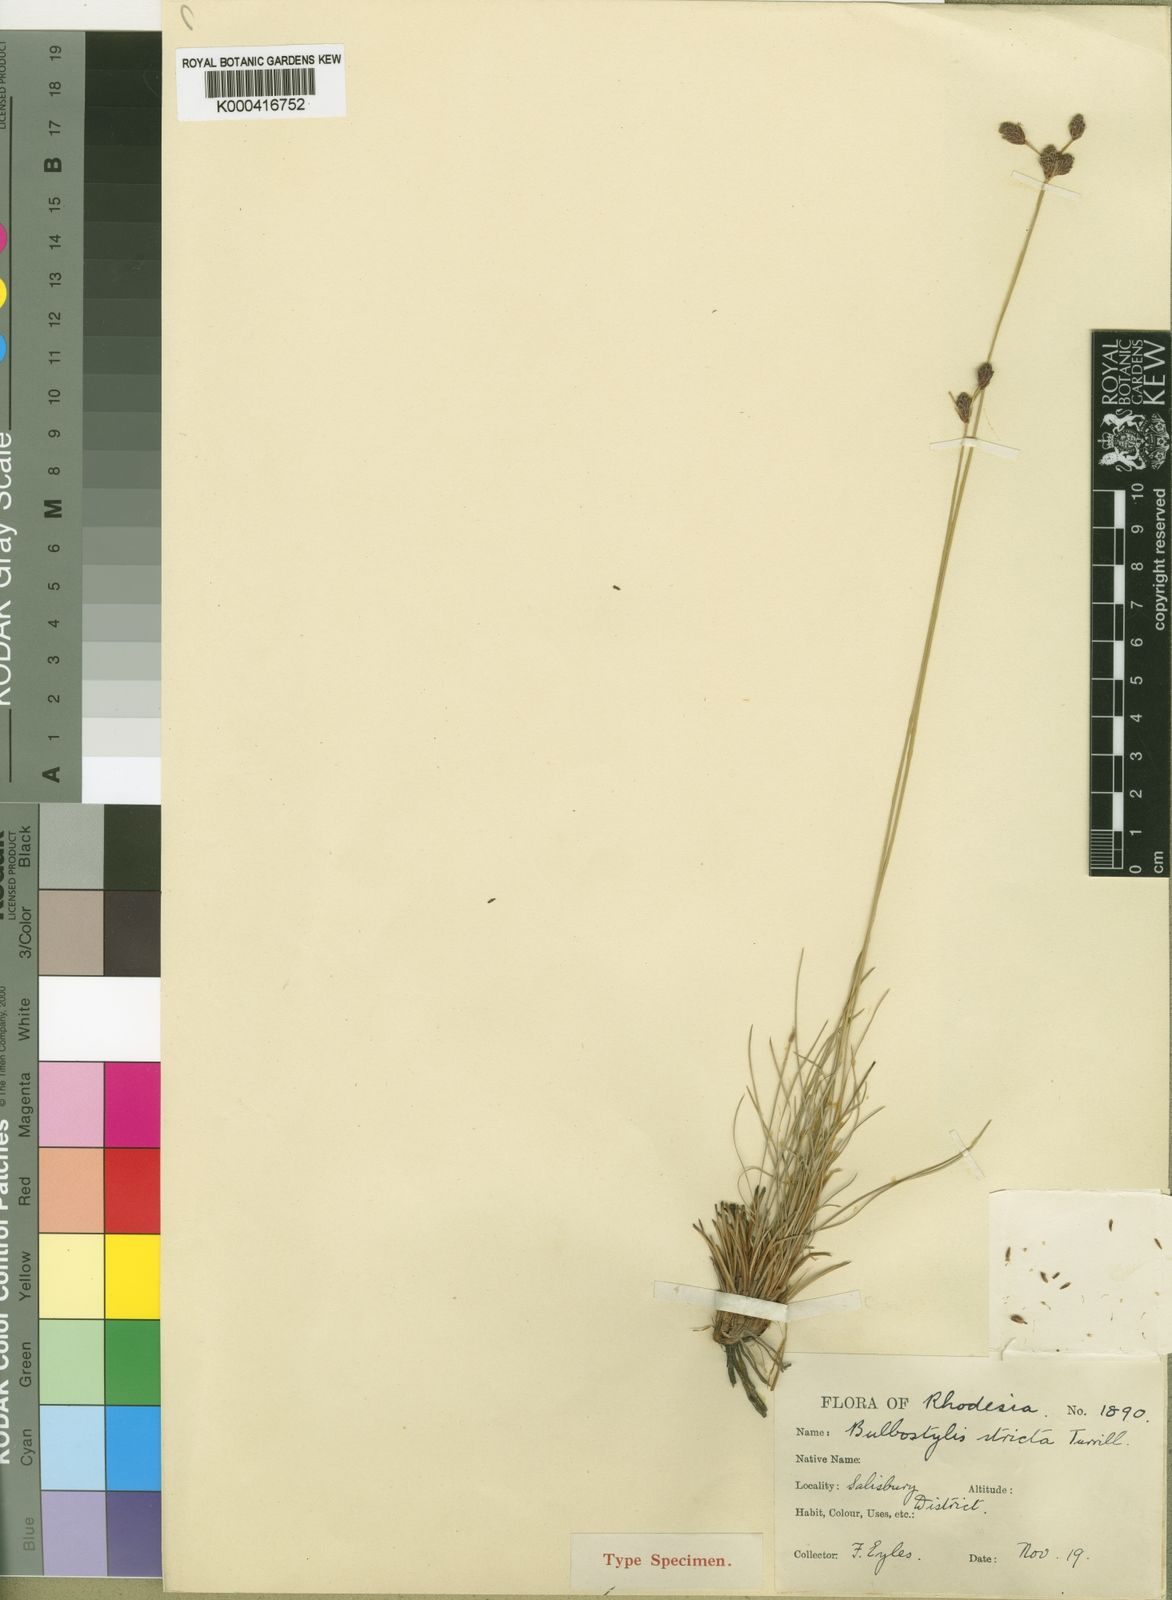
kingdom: Plantae
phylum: Tracheophyta
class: Liliopsida
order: Poales
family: Cyperaceae
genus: Bulbostylis
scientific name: Bulbostylis schoenoides
